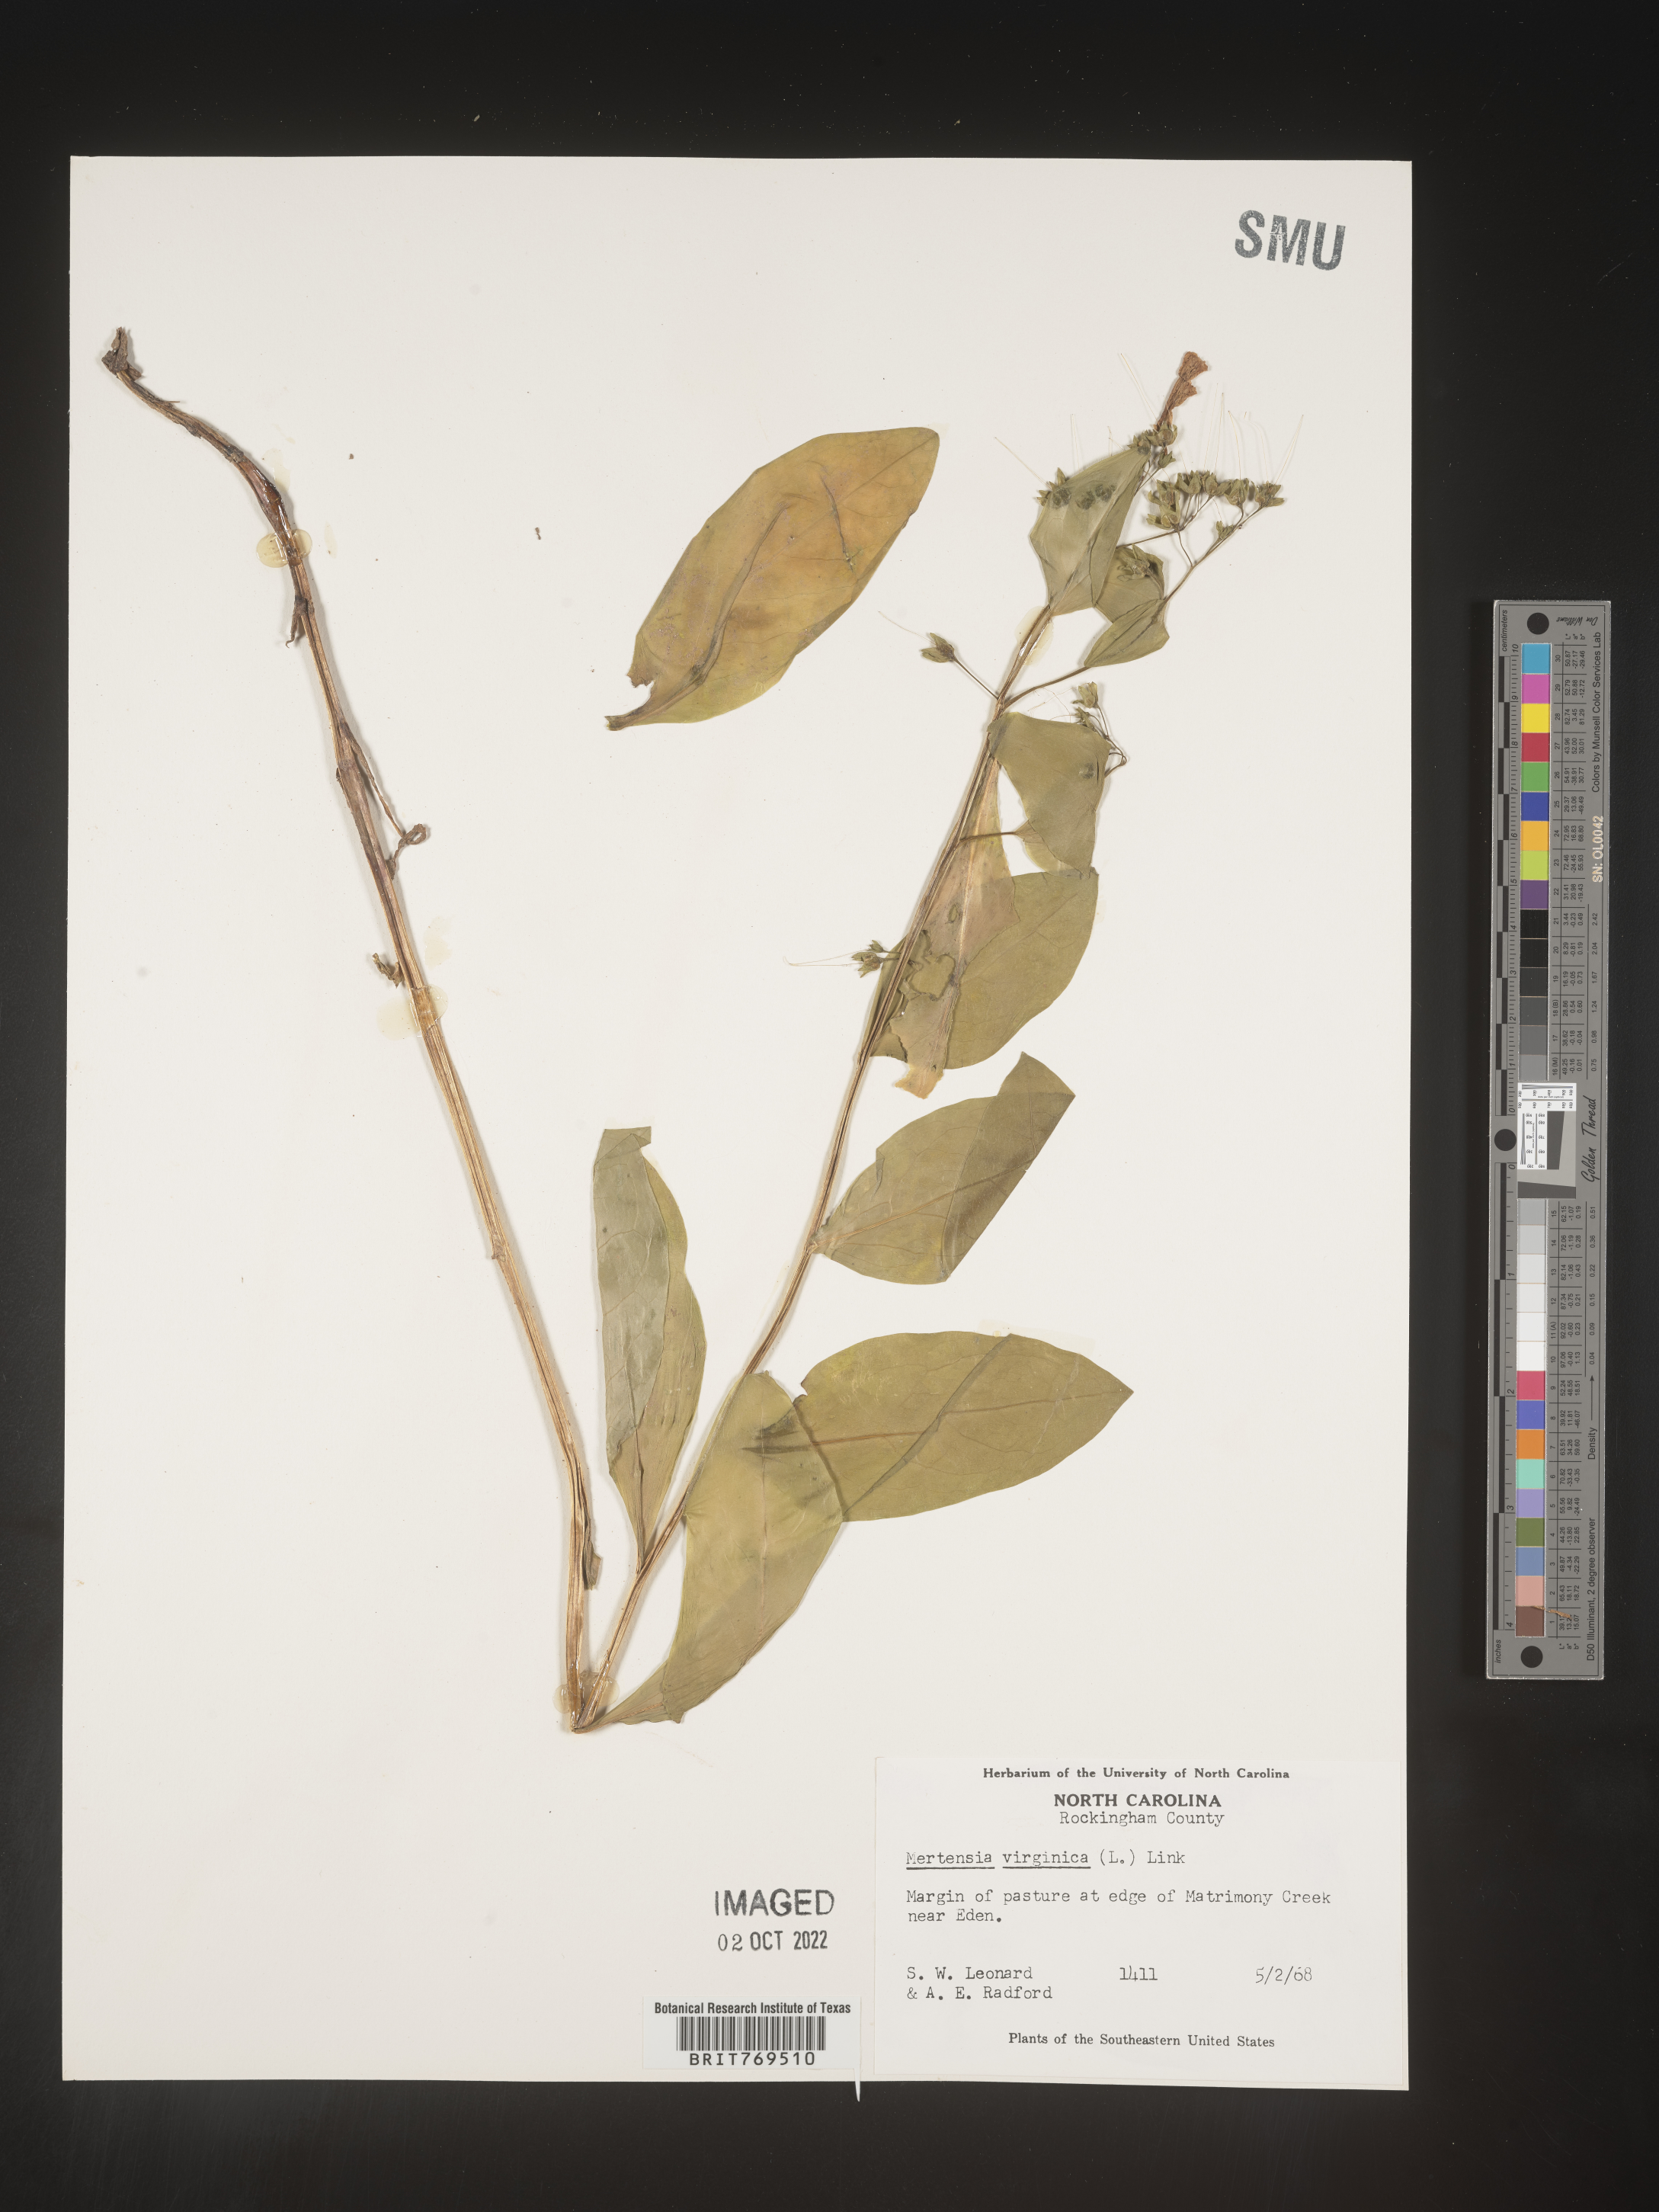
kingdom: Plantae
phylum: Tracheophyta
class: Magnoliopsida
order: Boraginales
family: Boraginaceae
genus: Mertensia
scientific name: Mertensia virginica
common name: Virginia bluebells
